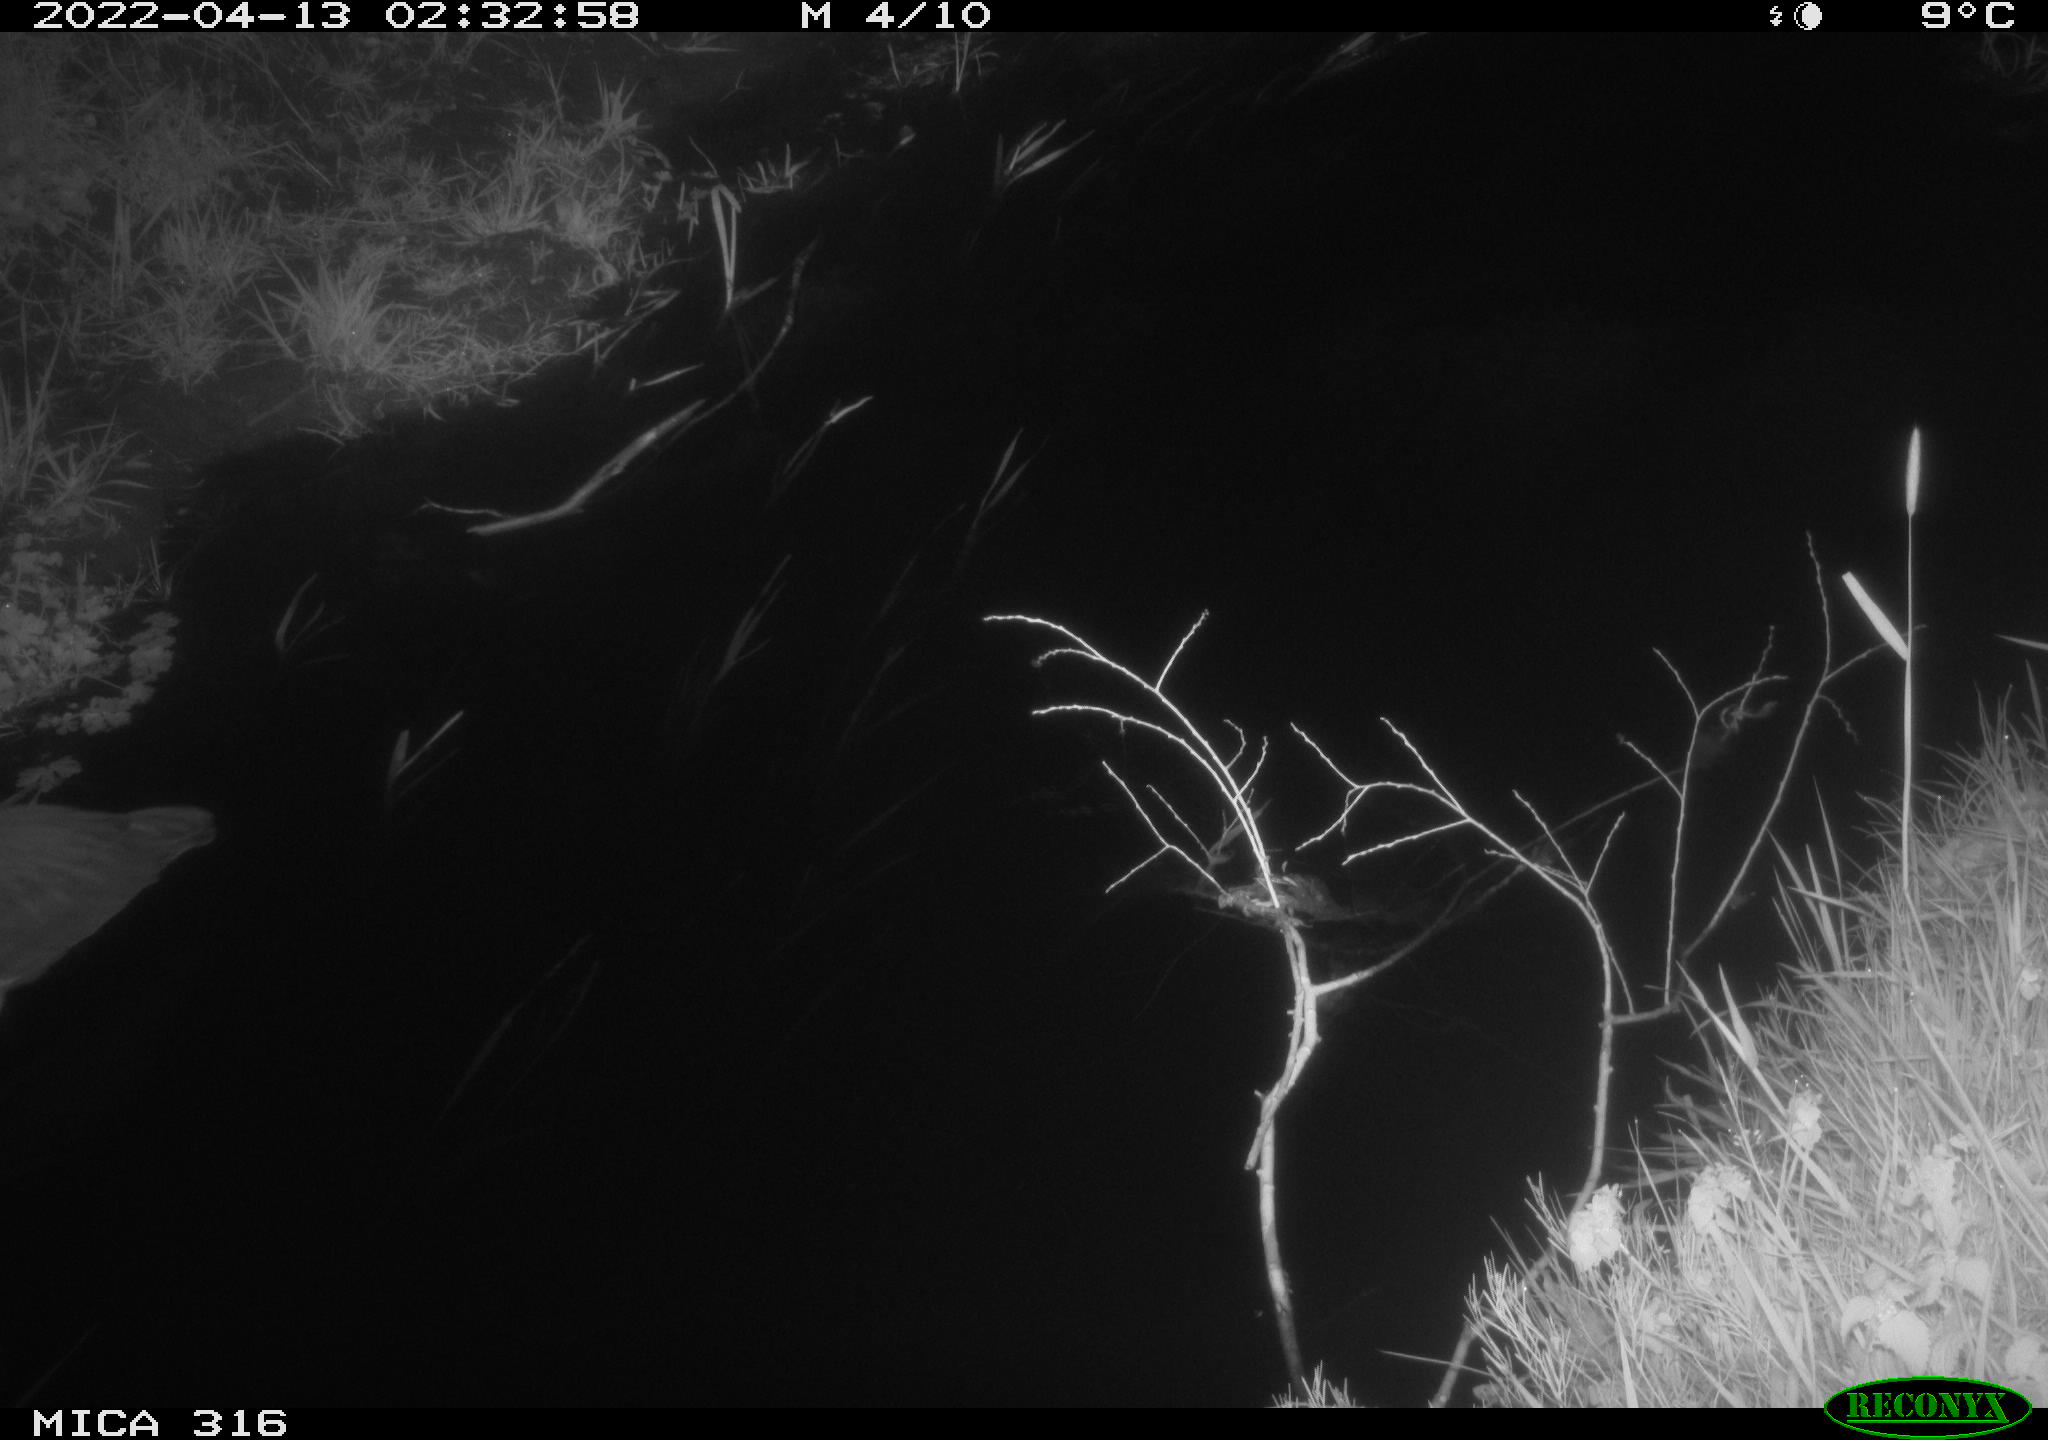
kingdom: Animalia
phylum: Chordata
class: Aves
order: Pelecaniformes
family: Ardeidae
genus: Ardea
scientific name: Ardea cinerea
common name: Grey heron
